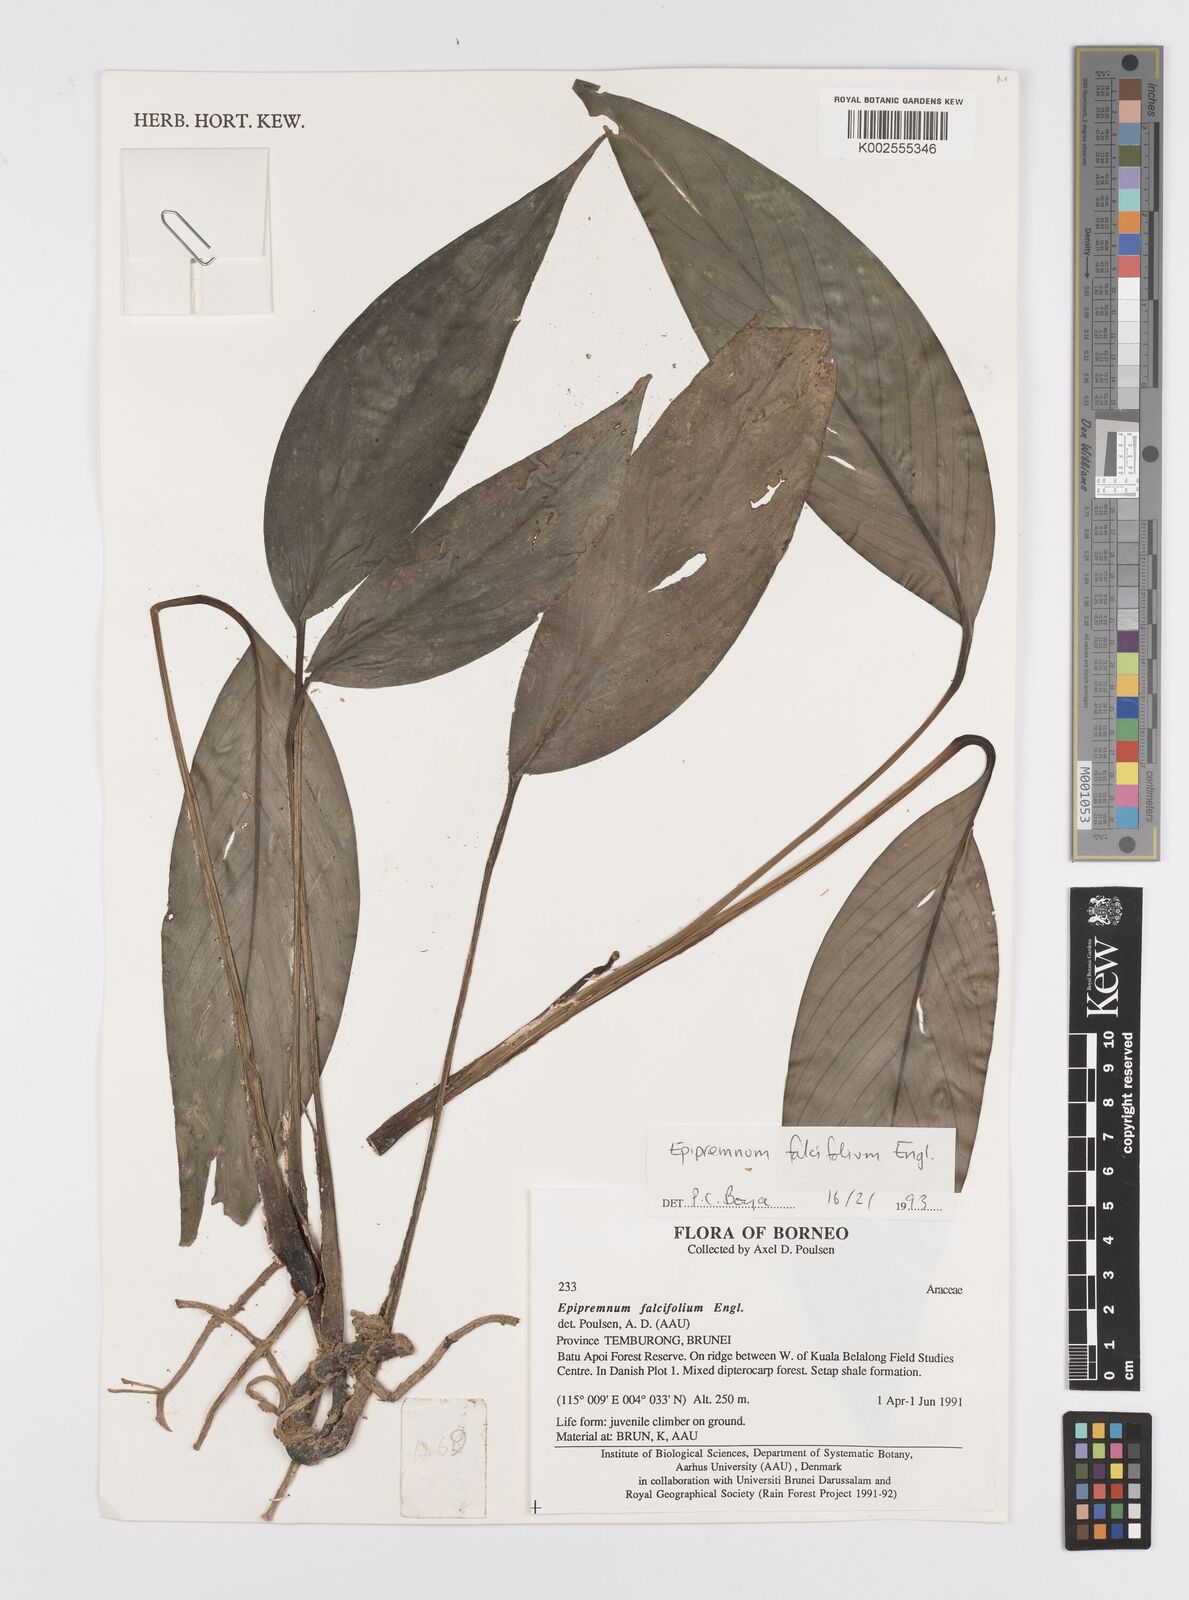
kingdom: Plantae
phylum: Tracheophyta
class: Liliopsida
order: Alismatales
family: Araceae
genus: Epipremnum
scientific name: Epipremnum falcifolium
